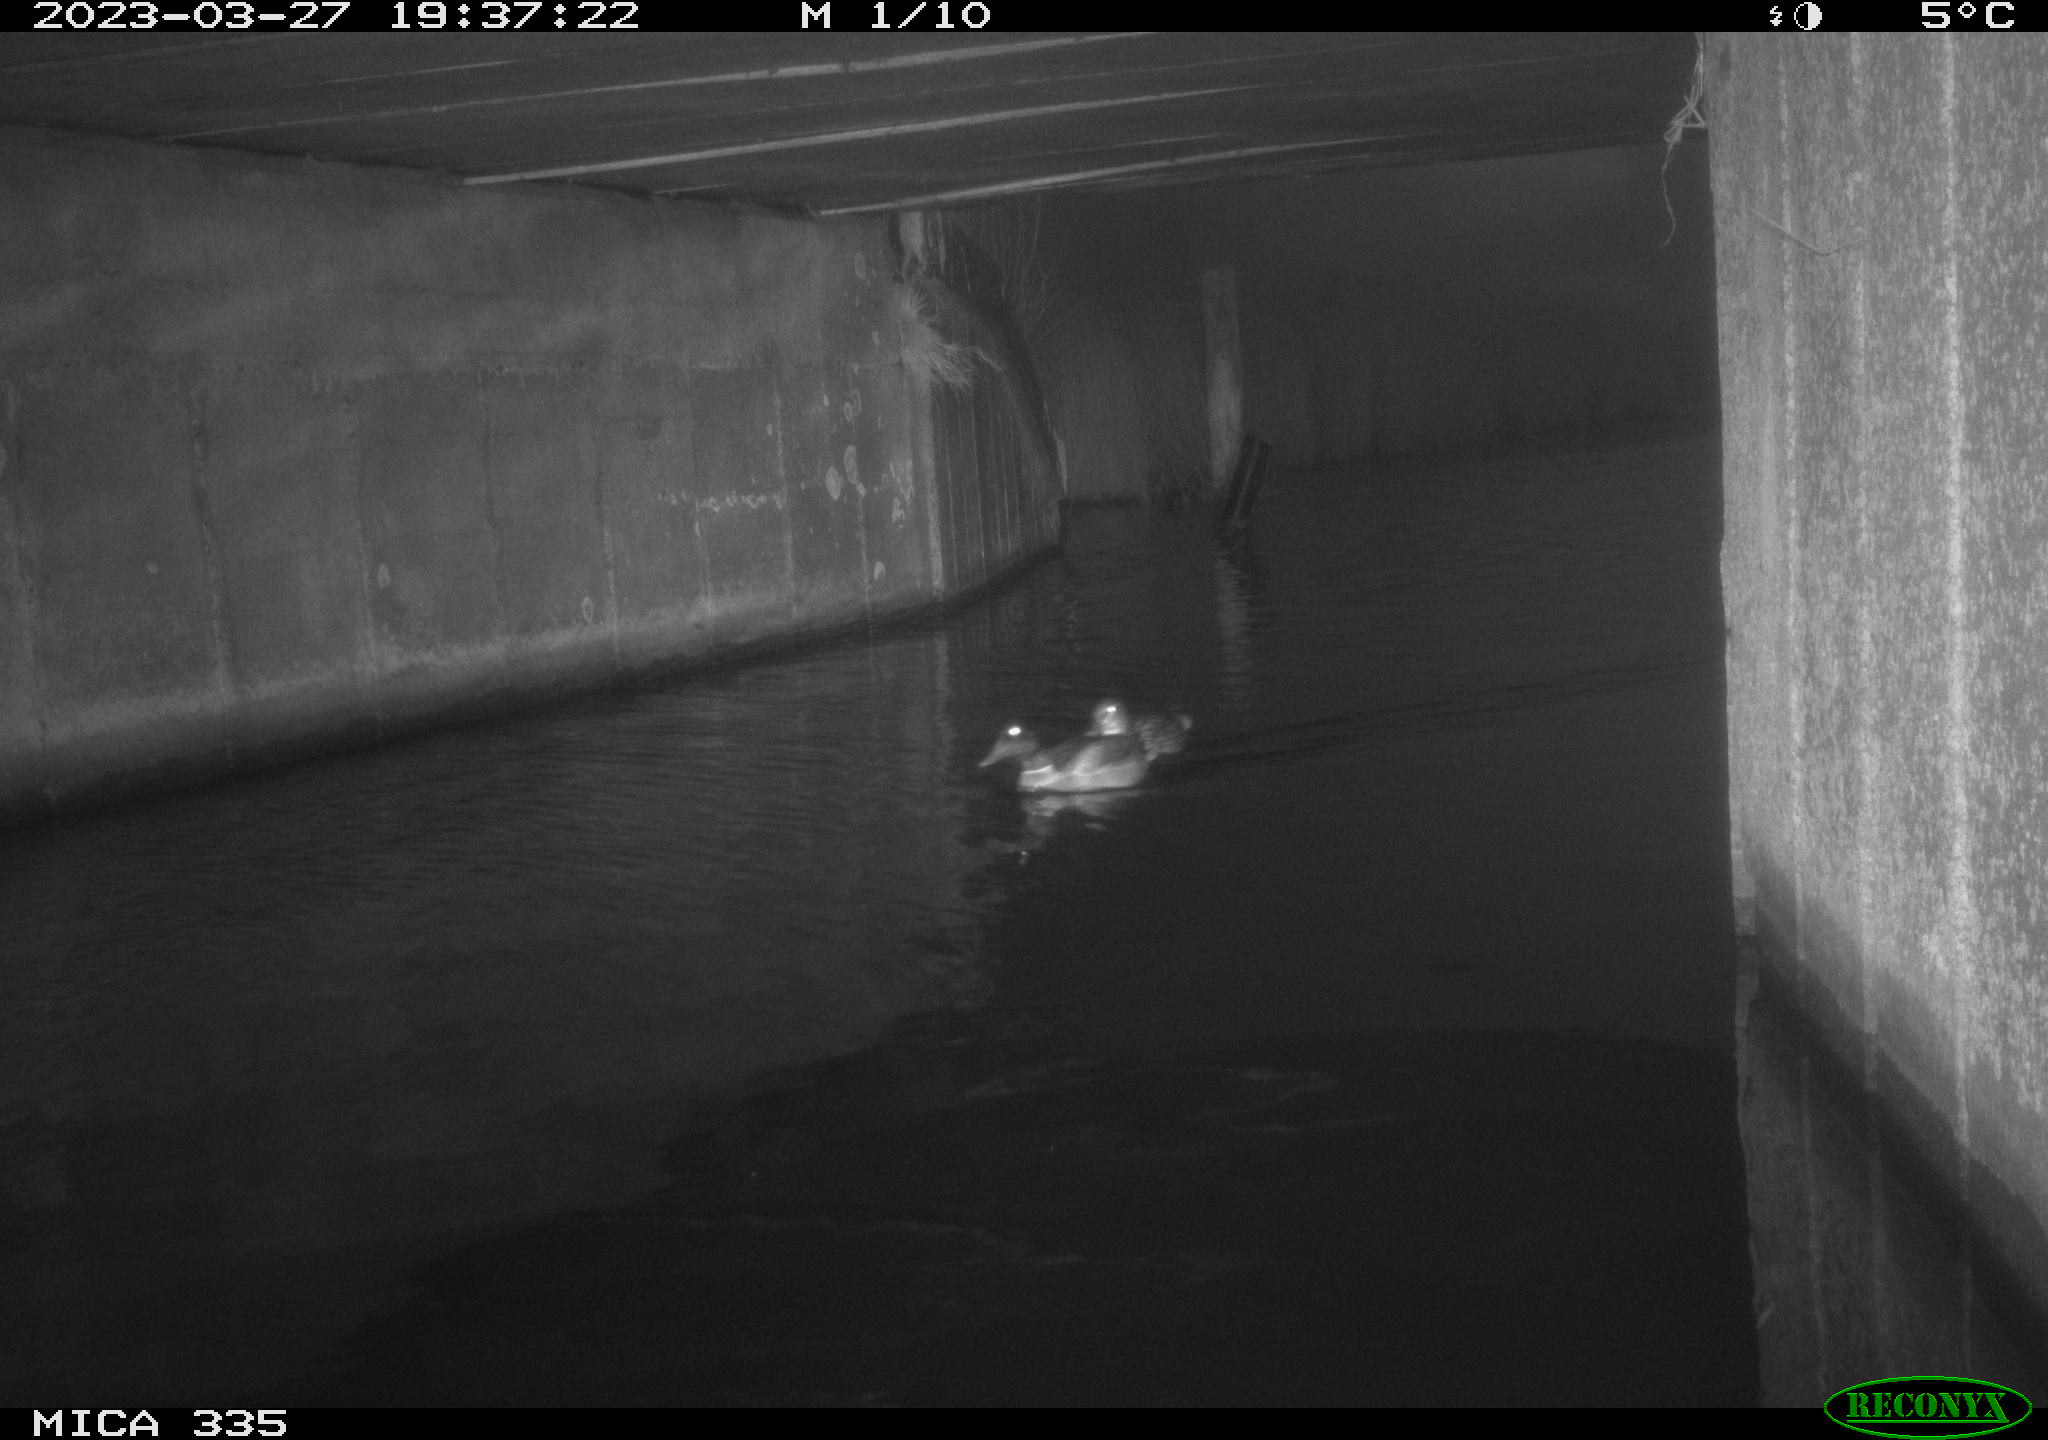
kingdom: Animalia
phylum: Chordata
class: Aves
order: Anseriformes
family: Anatidae
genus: Anas
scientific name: Anas
